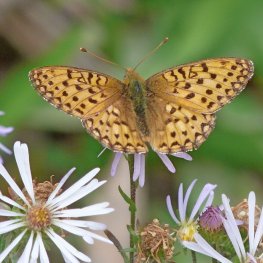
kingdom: Animalia
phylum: Arthropoda
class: Insecta
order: Lepidoptera
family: Nymphalidae
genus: Speyeria
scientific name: Speyeria mormonia
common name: Mormon Fritillary
